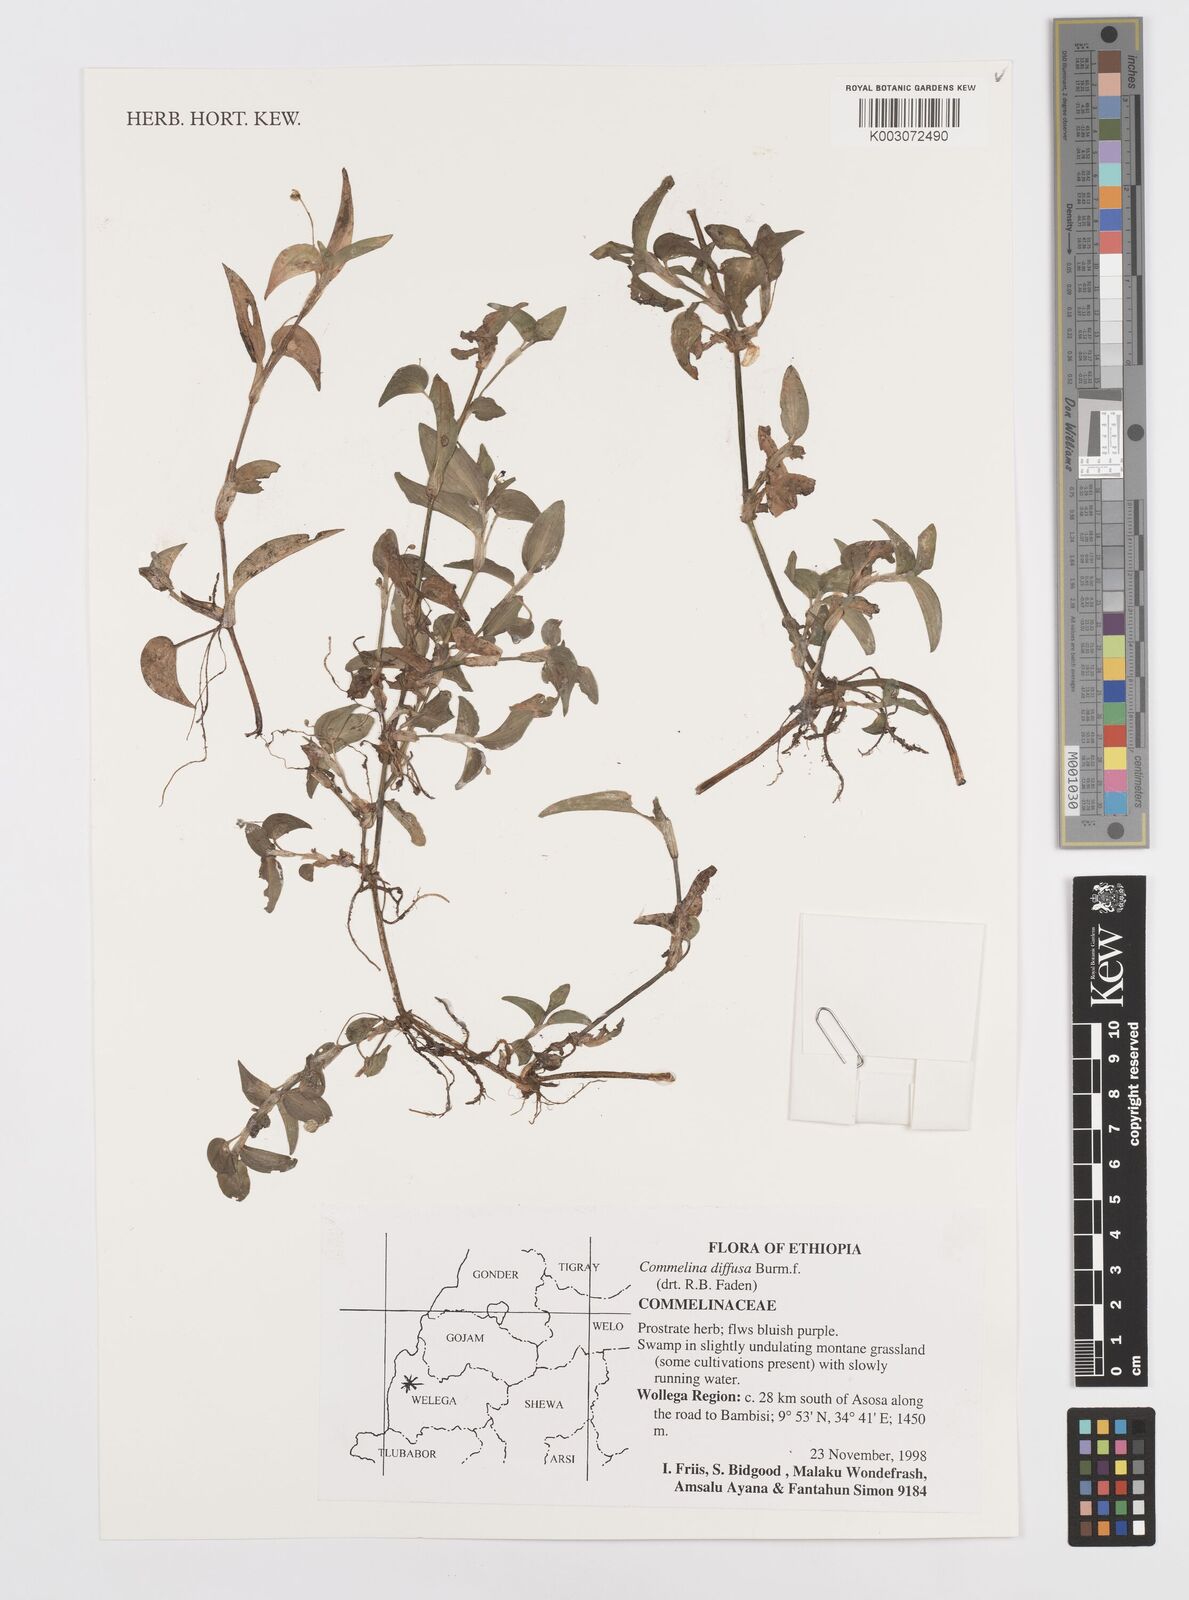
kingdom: Plantae
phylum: Tracheophyta
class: Liliopsida
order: Commelinales
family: Commelinaceae
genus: Commelina
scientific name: Commelina diffusa
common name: Climbing dayflower
